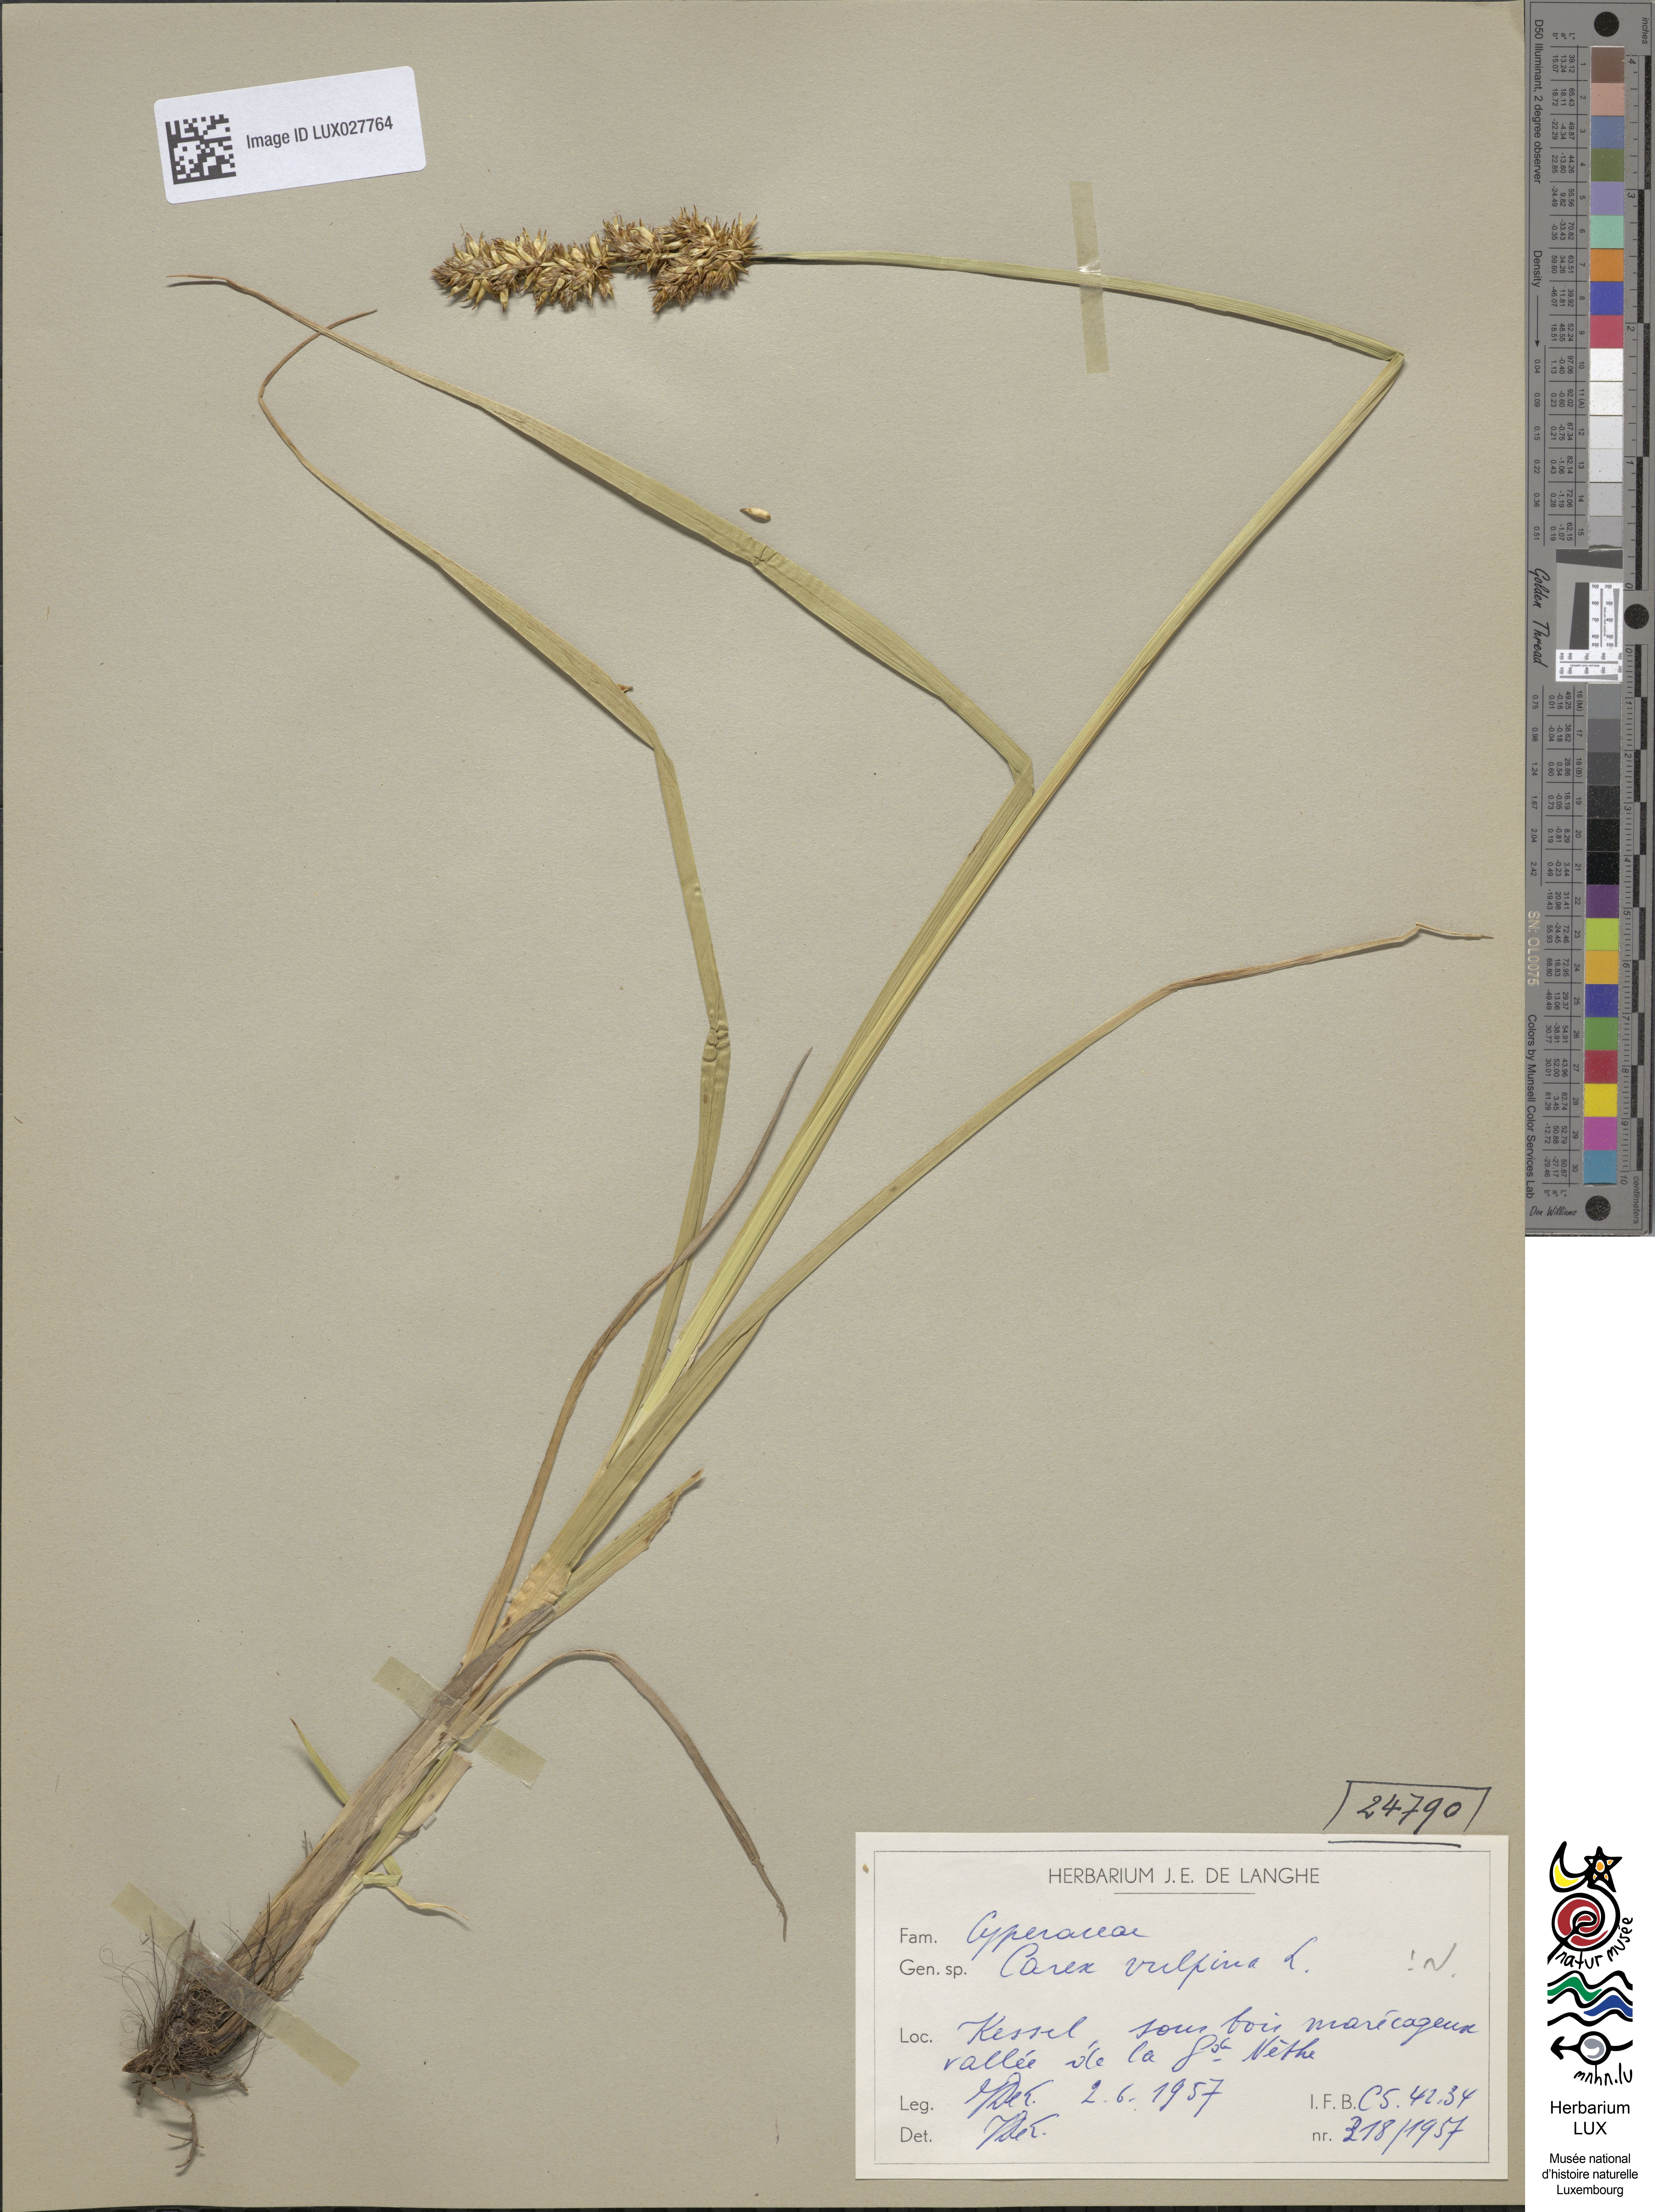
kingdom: Plantae
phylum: Tracheophyta
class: Liliopsida
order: Poales
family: Cyperaceae
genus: Carex
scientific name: Carex vulpina
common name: True fox-sedge
